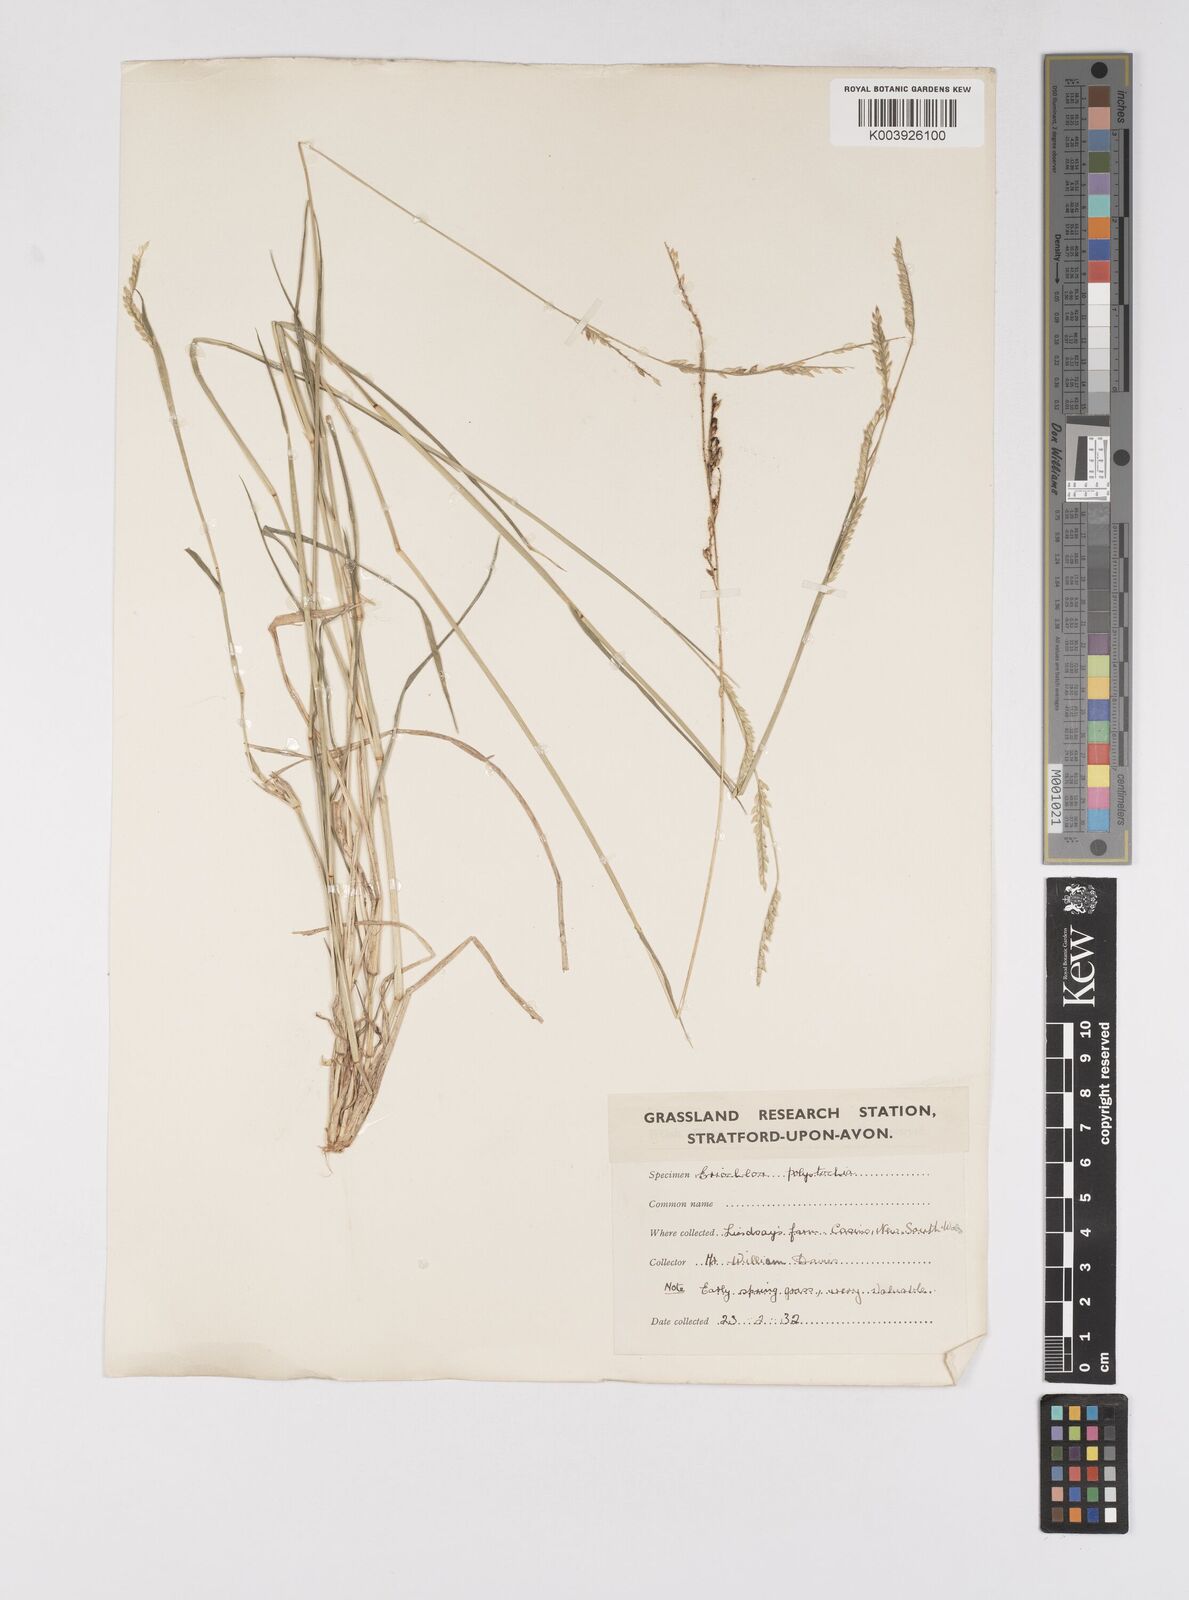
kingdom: Plantae
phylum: Tracheophyta
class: Liliopsida
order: Poales
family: Poaceae
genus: Eriochloa
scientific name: Eriochloa
